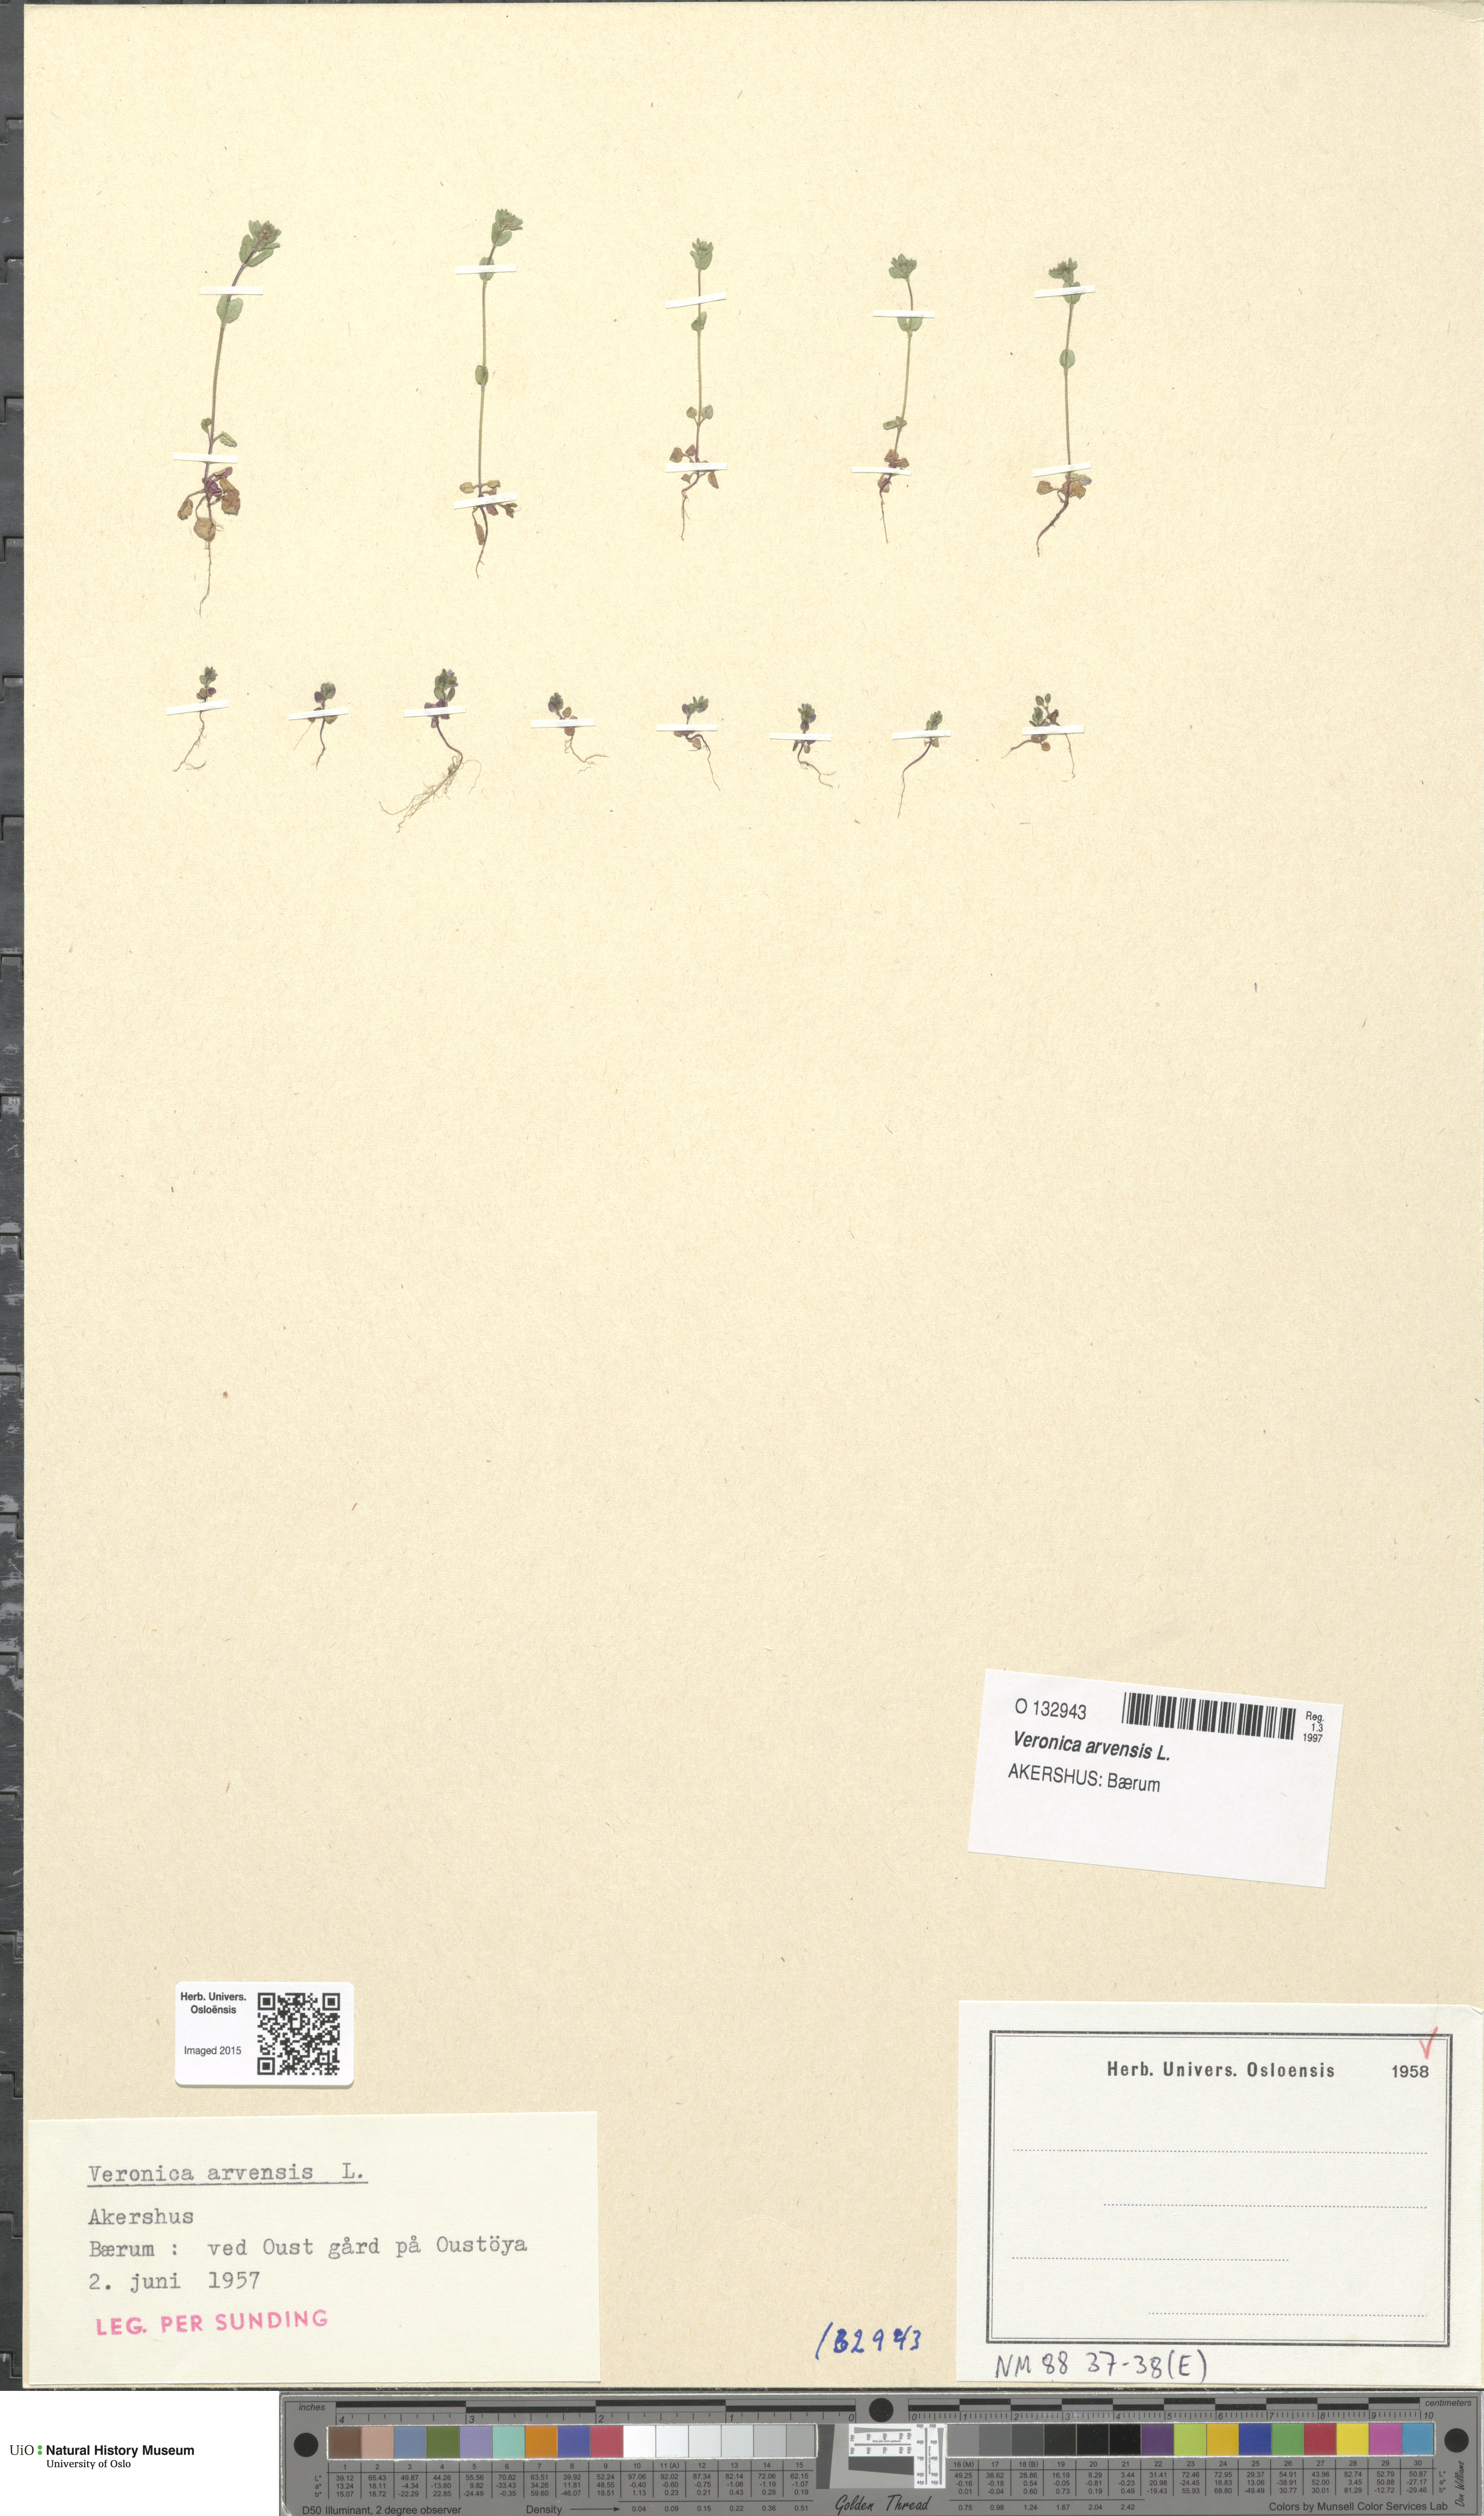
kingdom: Plantae
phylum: Tracheophyta
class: Magnoliopsida
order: Lamiales
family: Plantaginaceae
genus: Veronica
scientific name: Veronica arvensis
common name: Corn speedwell
